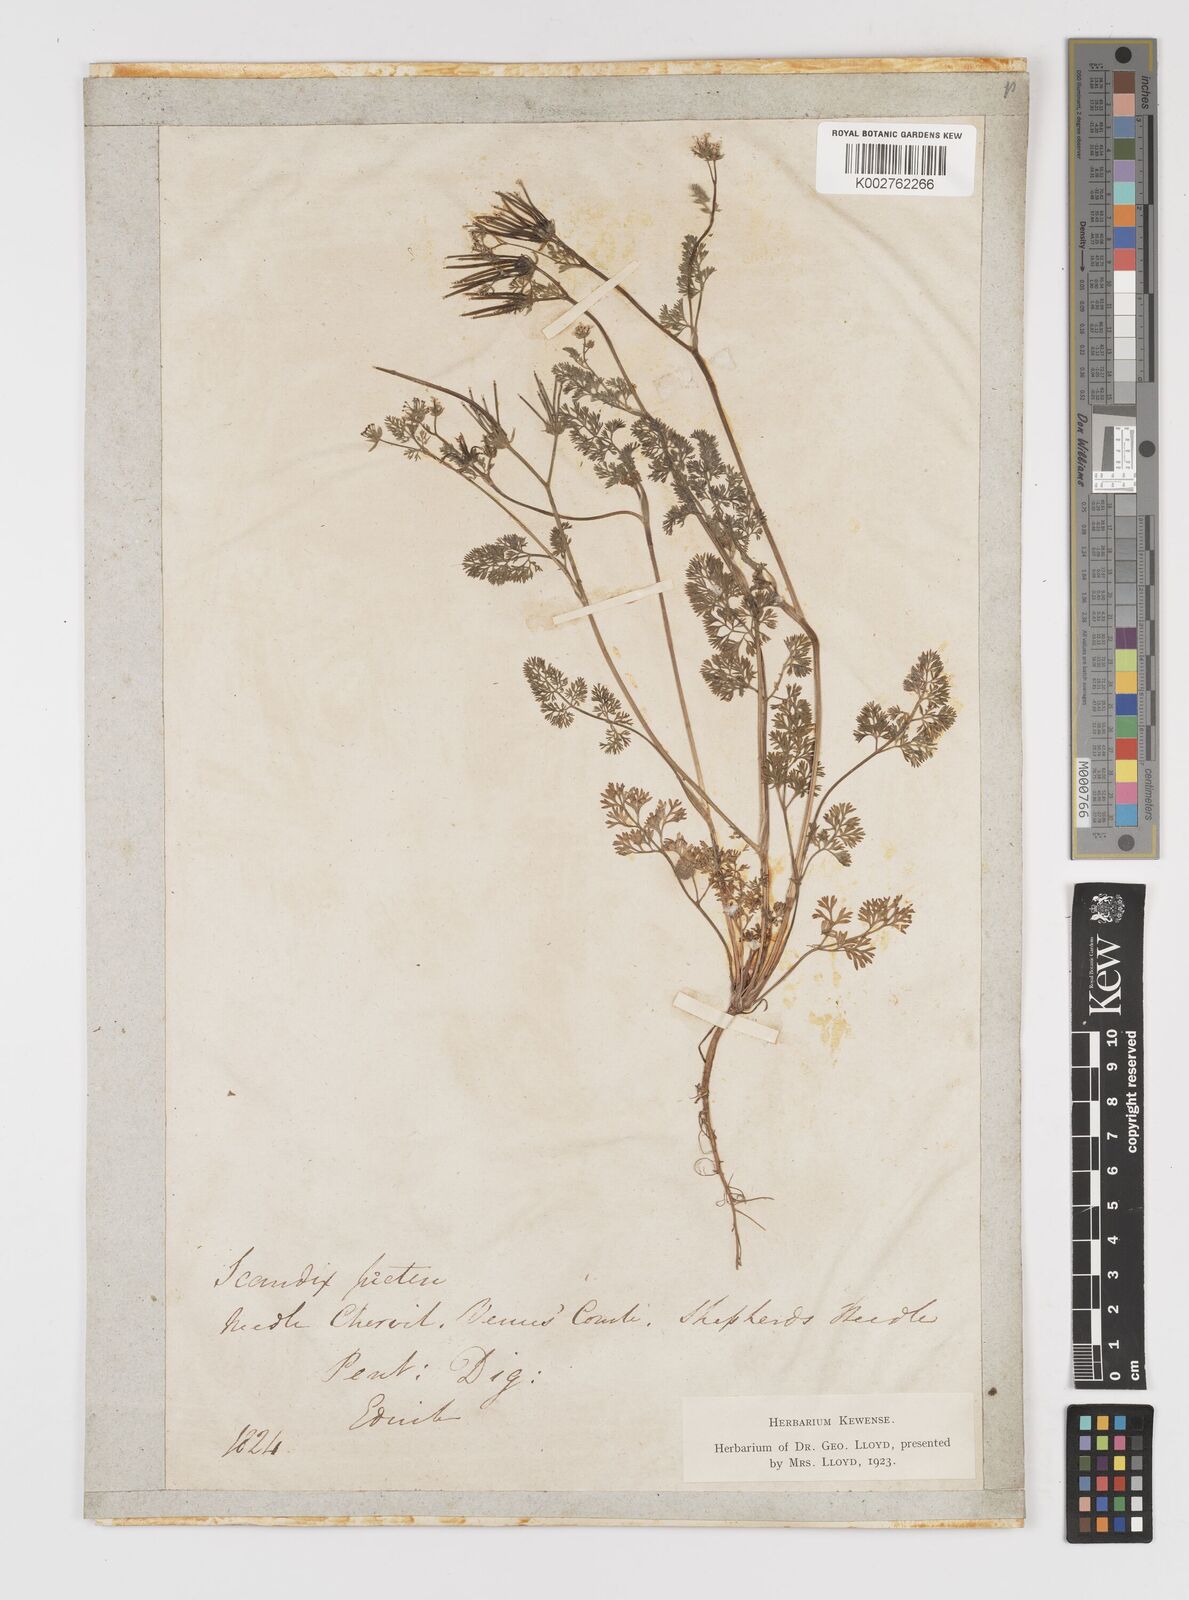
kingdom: Plantae
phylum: Tracheophyta
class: Magnoliopsida
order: Apiales
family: Apiaceae
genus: Scandix
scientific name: Scandix pecten-veneris
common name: Shepherd's-needle
